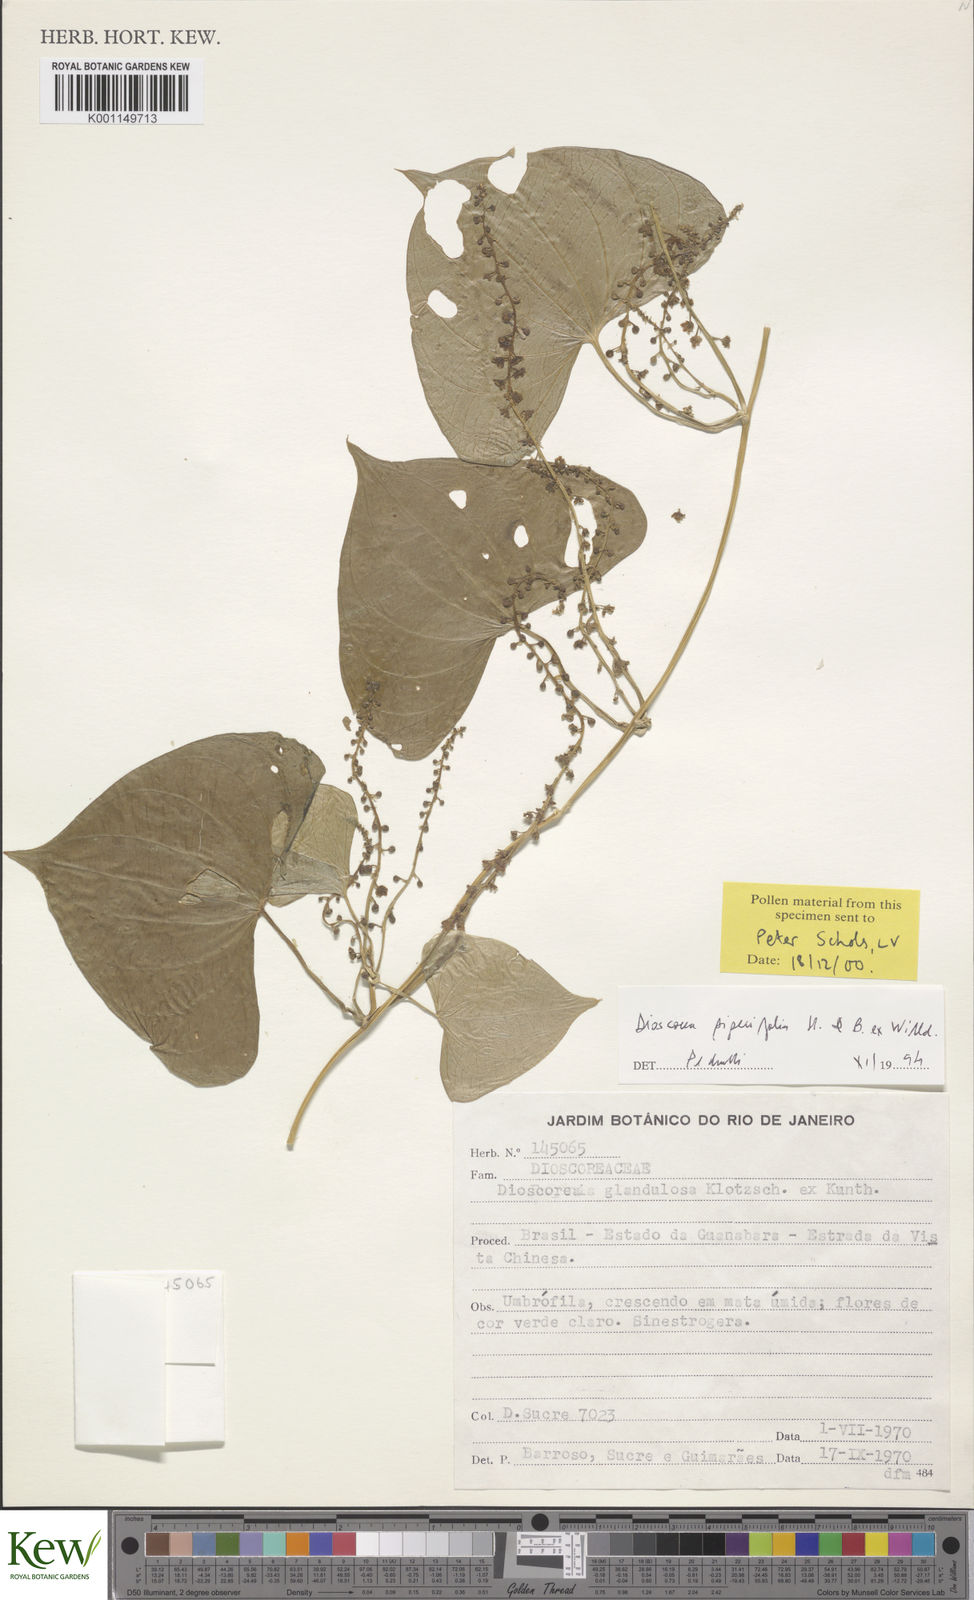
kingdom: Plantae
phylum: Tracheophyta
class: Liliopsida
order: Dioscoreales
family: Dioscoreaceae
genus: Dioscorea
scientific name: Dioscorea piperifolia
